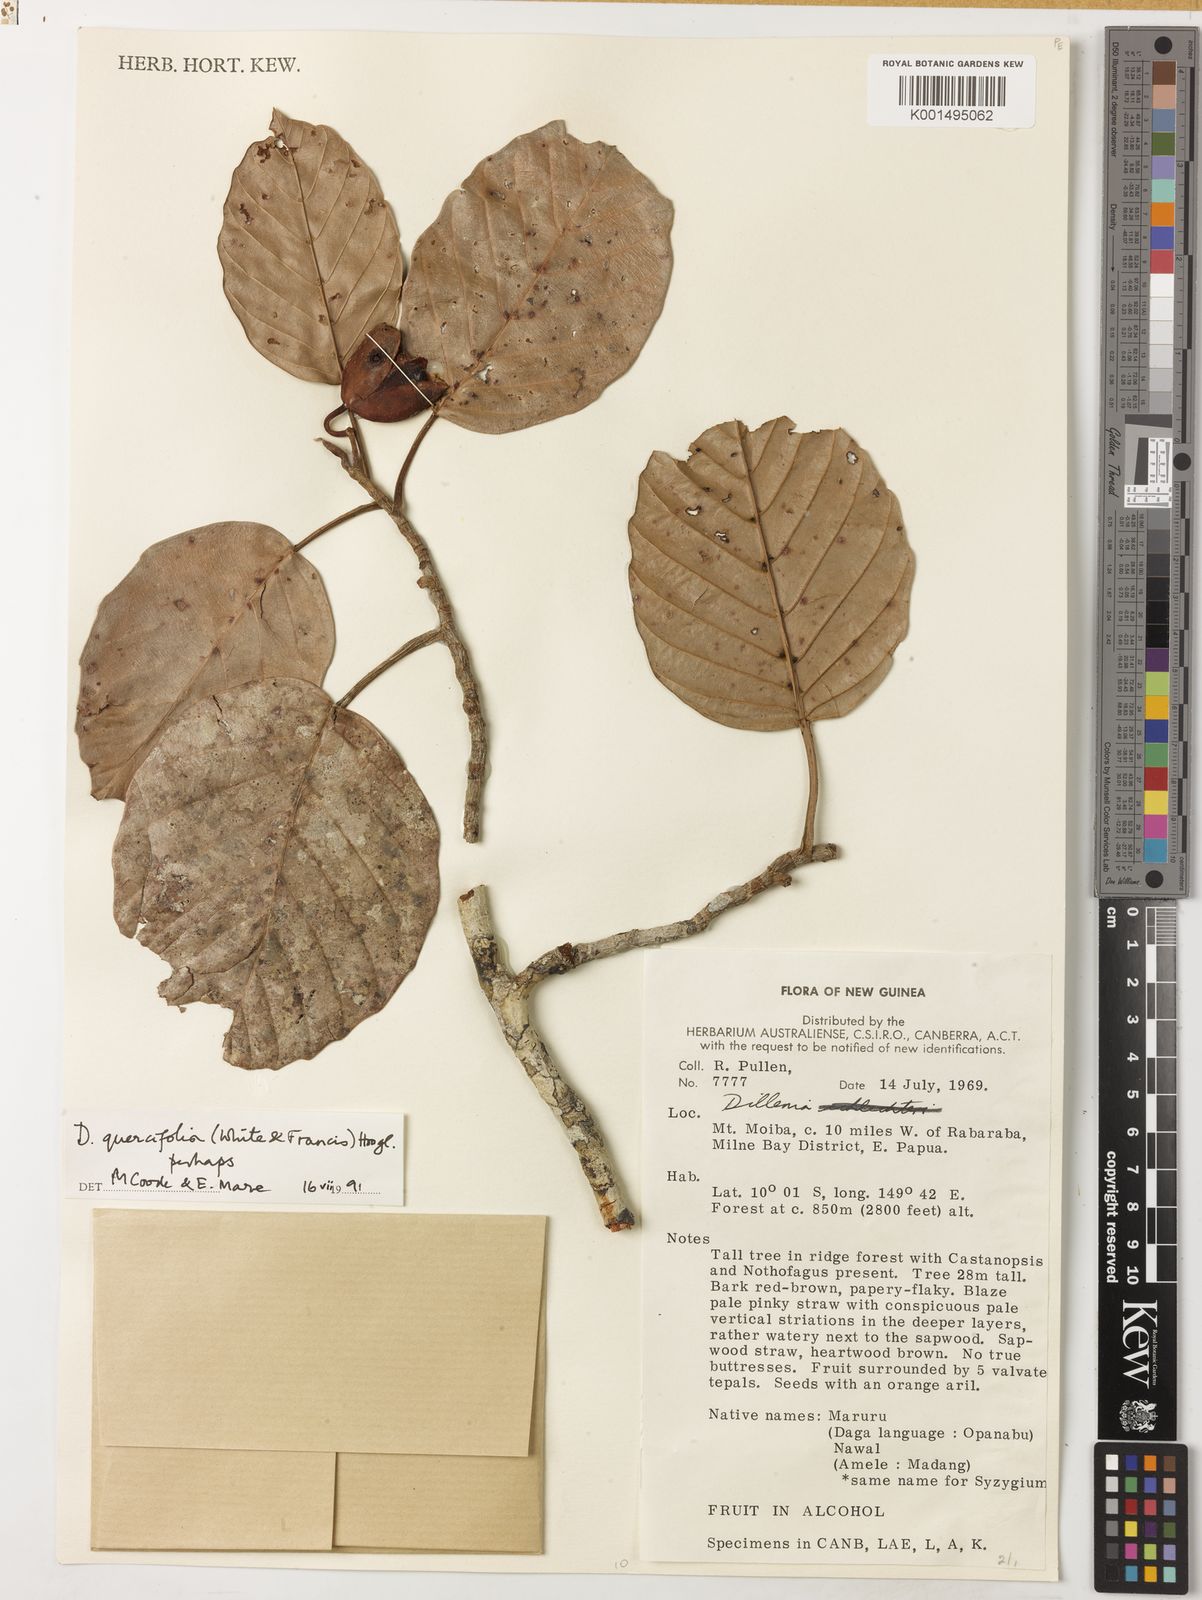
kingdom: Plantae
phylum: Tracheophyta
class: Magnoliopsida
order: Dilleniales
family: Dilleniaceae
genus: Dillenia
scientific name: Dillenia quercifolia
